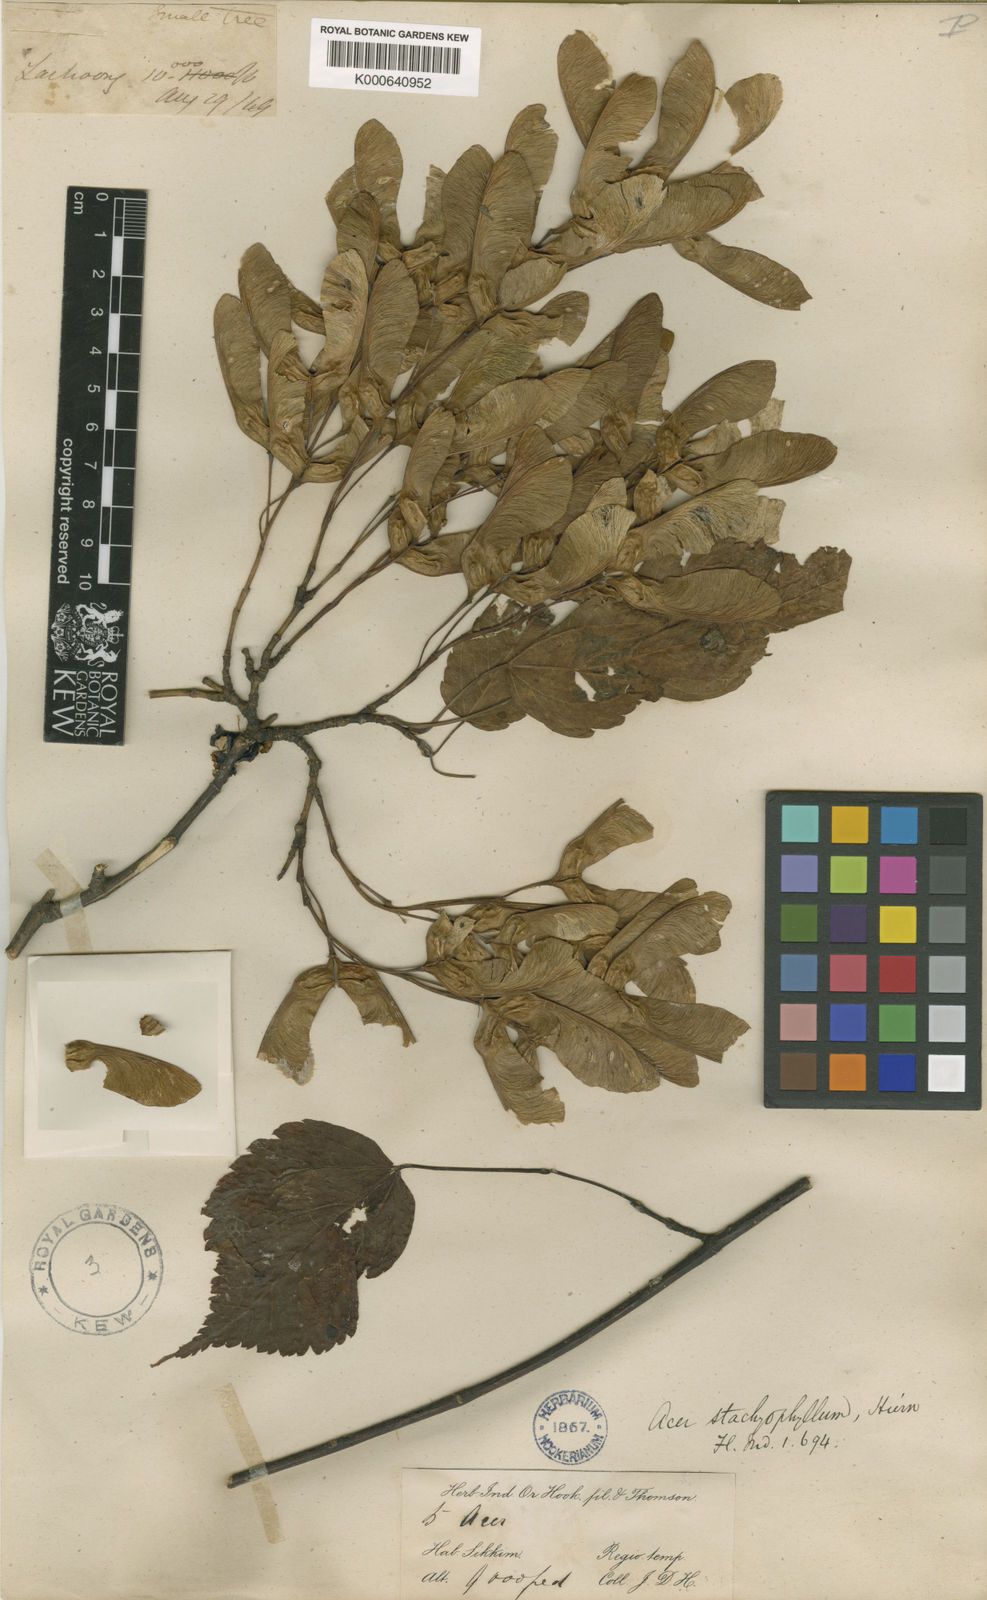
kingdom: Plantae
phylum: Tracheophyta
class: Magnoliopsida
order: Sapindales
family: Sapindaceae
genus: Acer
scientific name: Acer stachyophyllum
